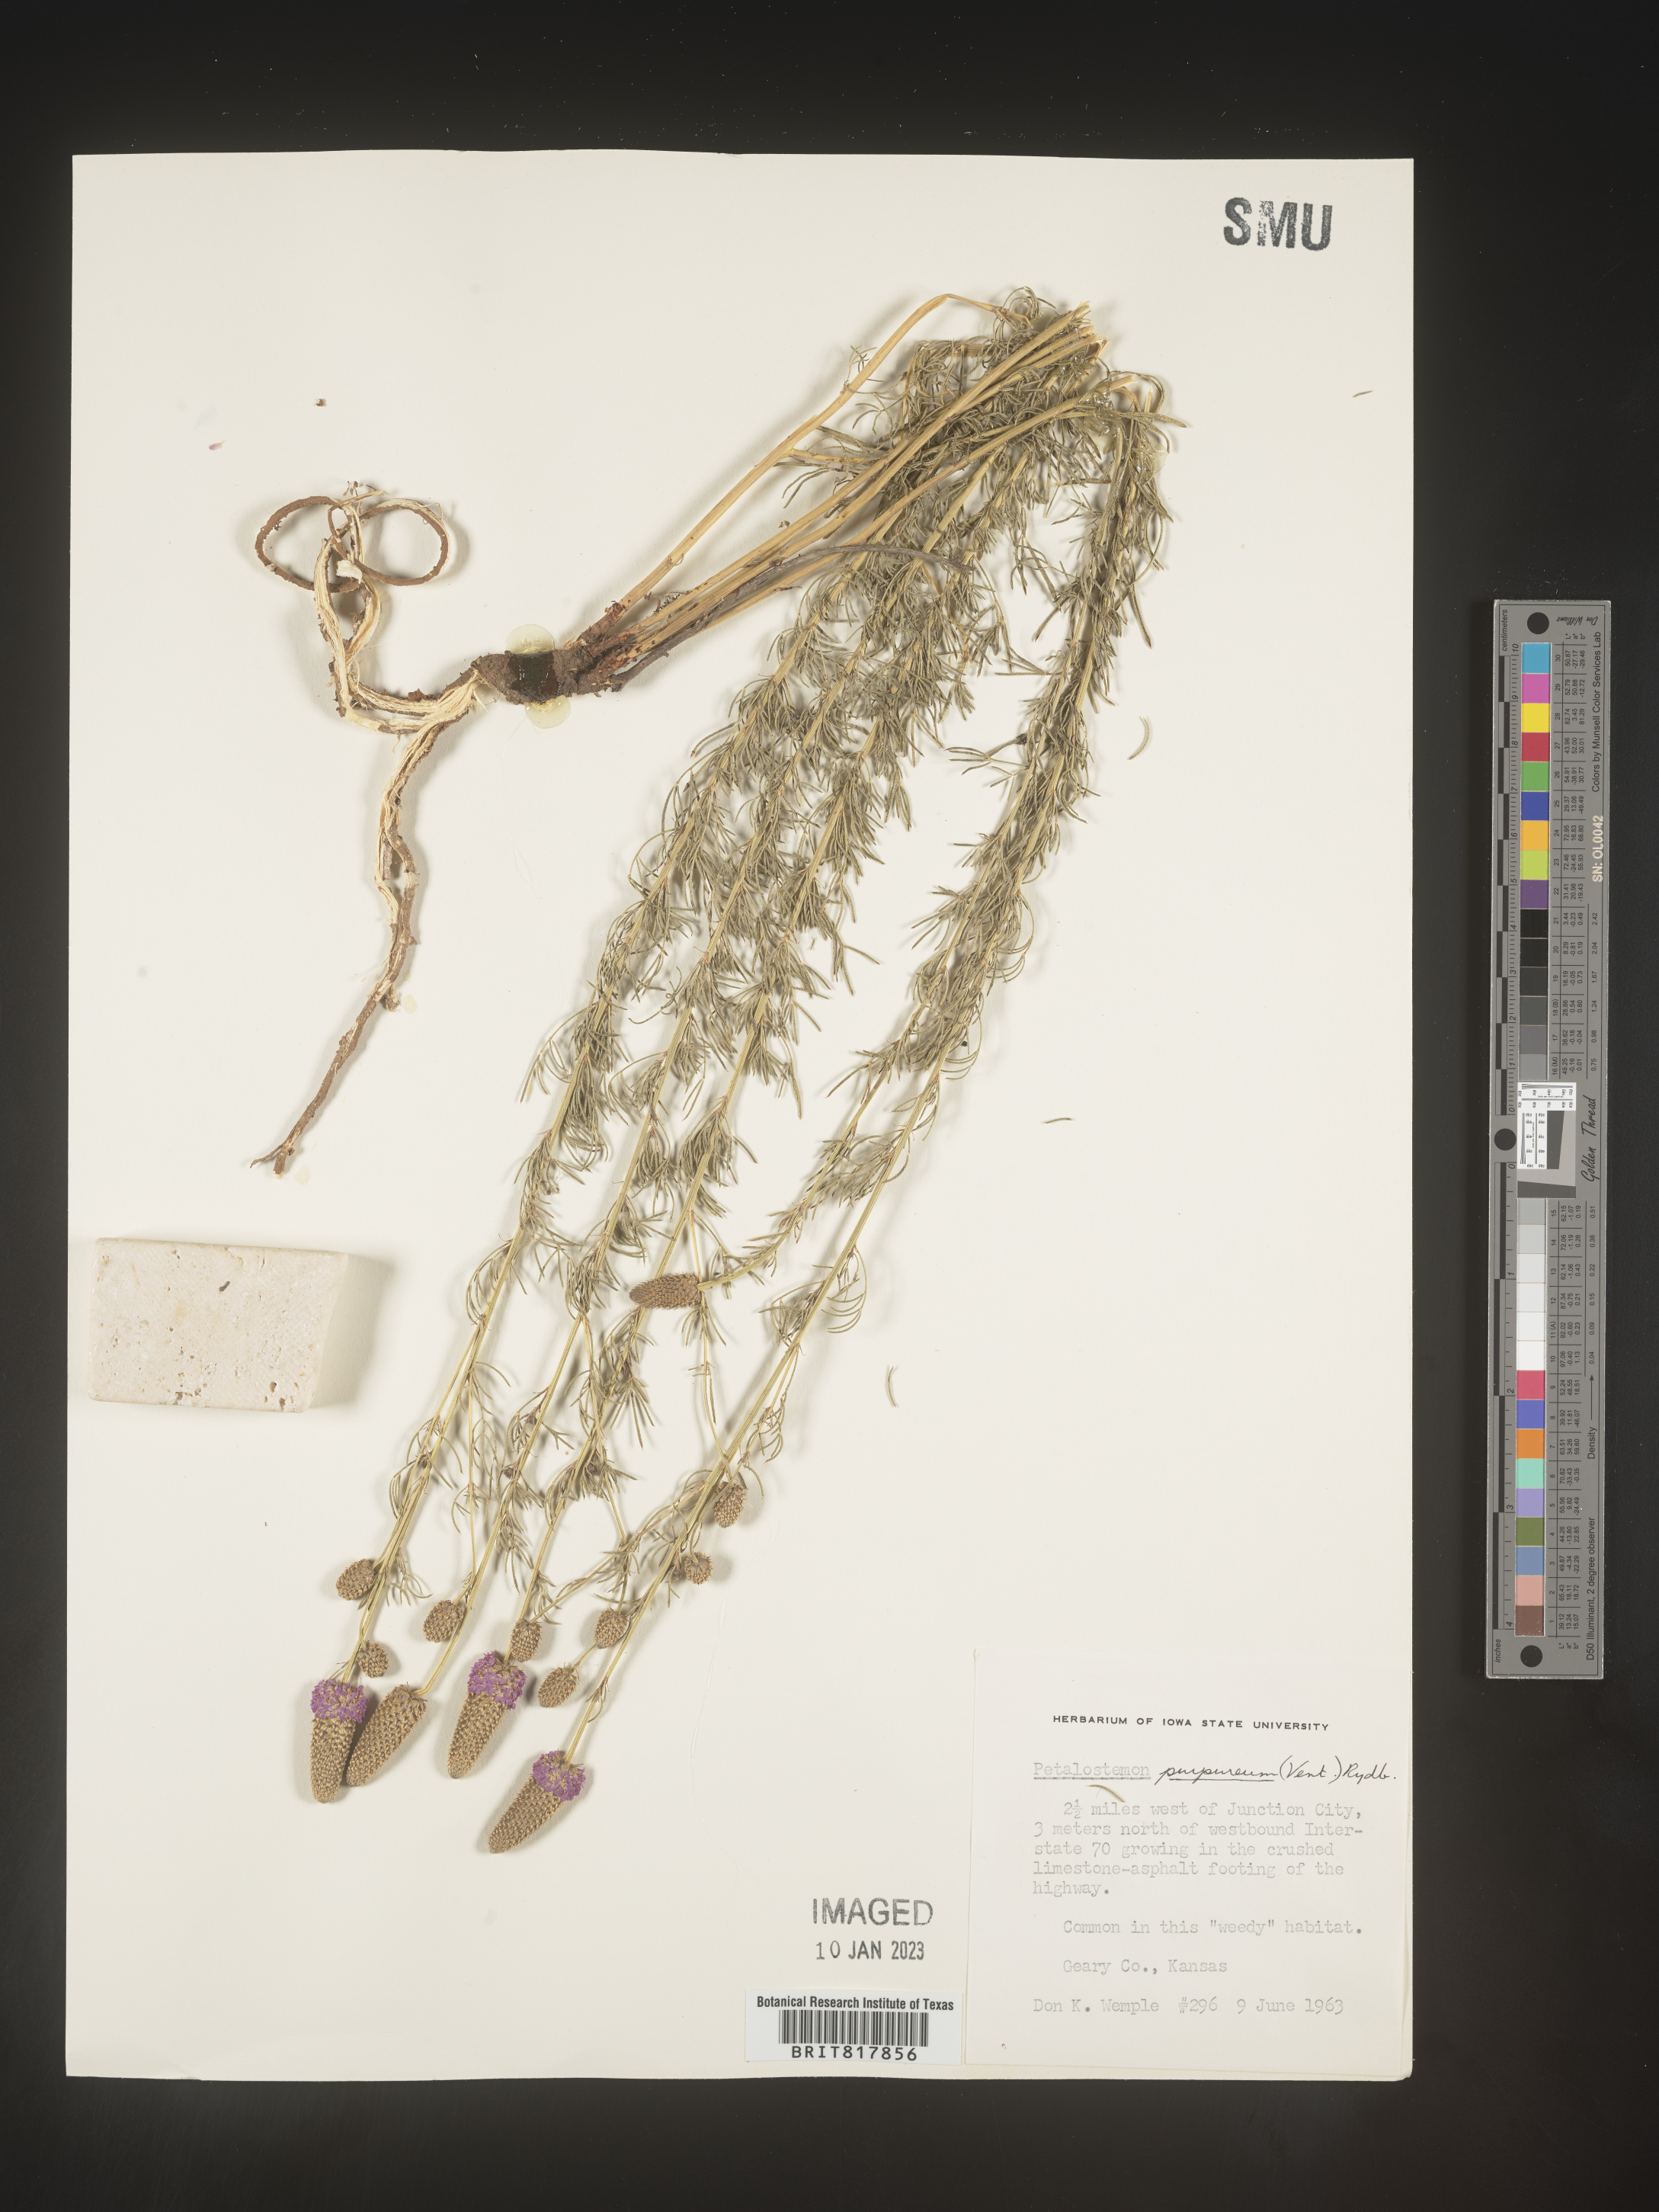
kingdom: Plantae
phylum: Tracheophyta
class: Magnoliopsida
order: Fabales
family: Fabaceae
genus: Dalea
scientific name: Dalea purpurea
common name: Purple prairie-clover
